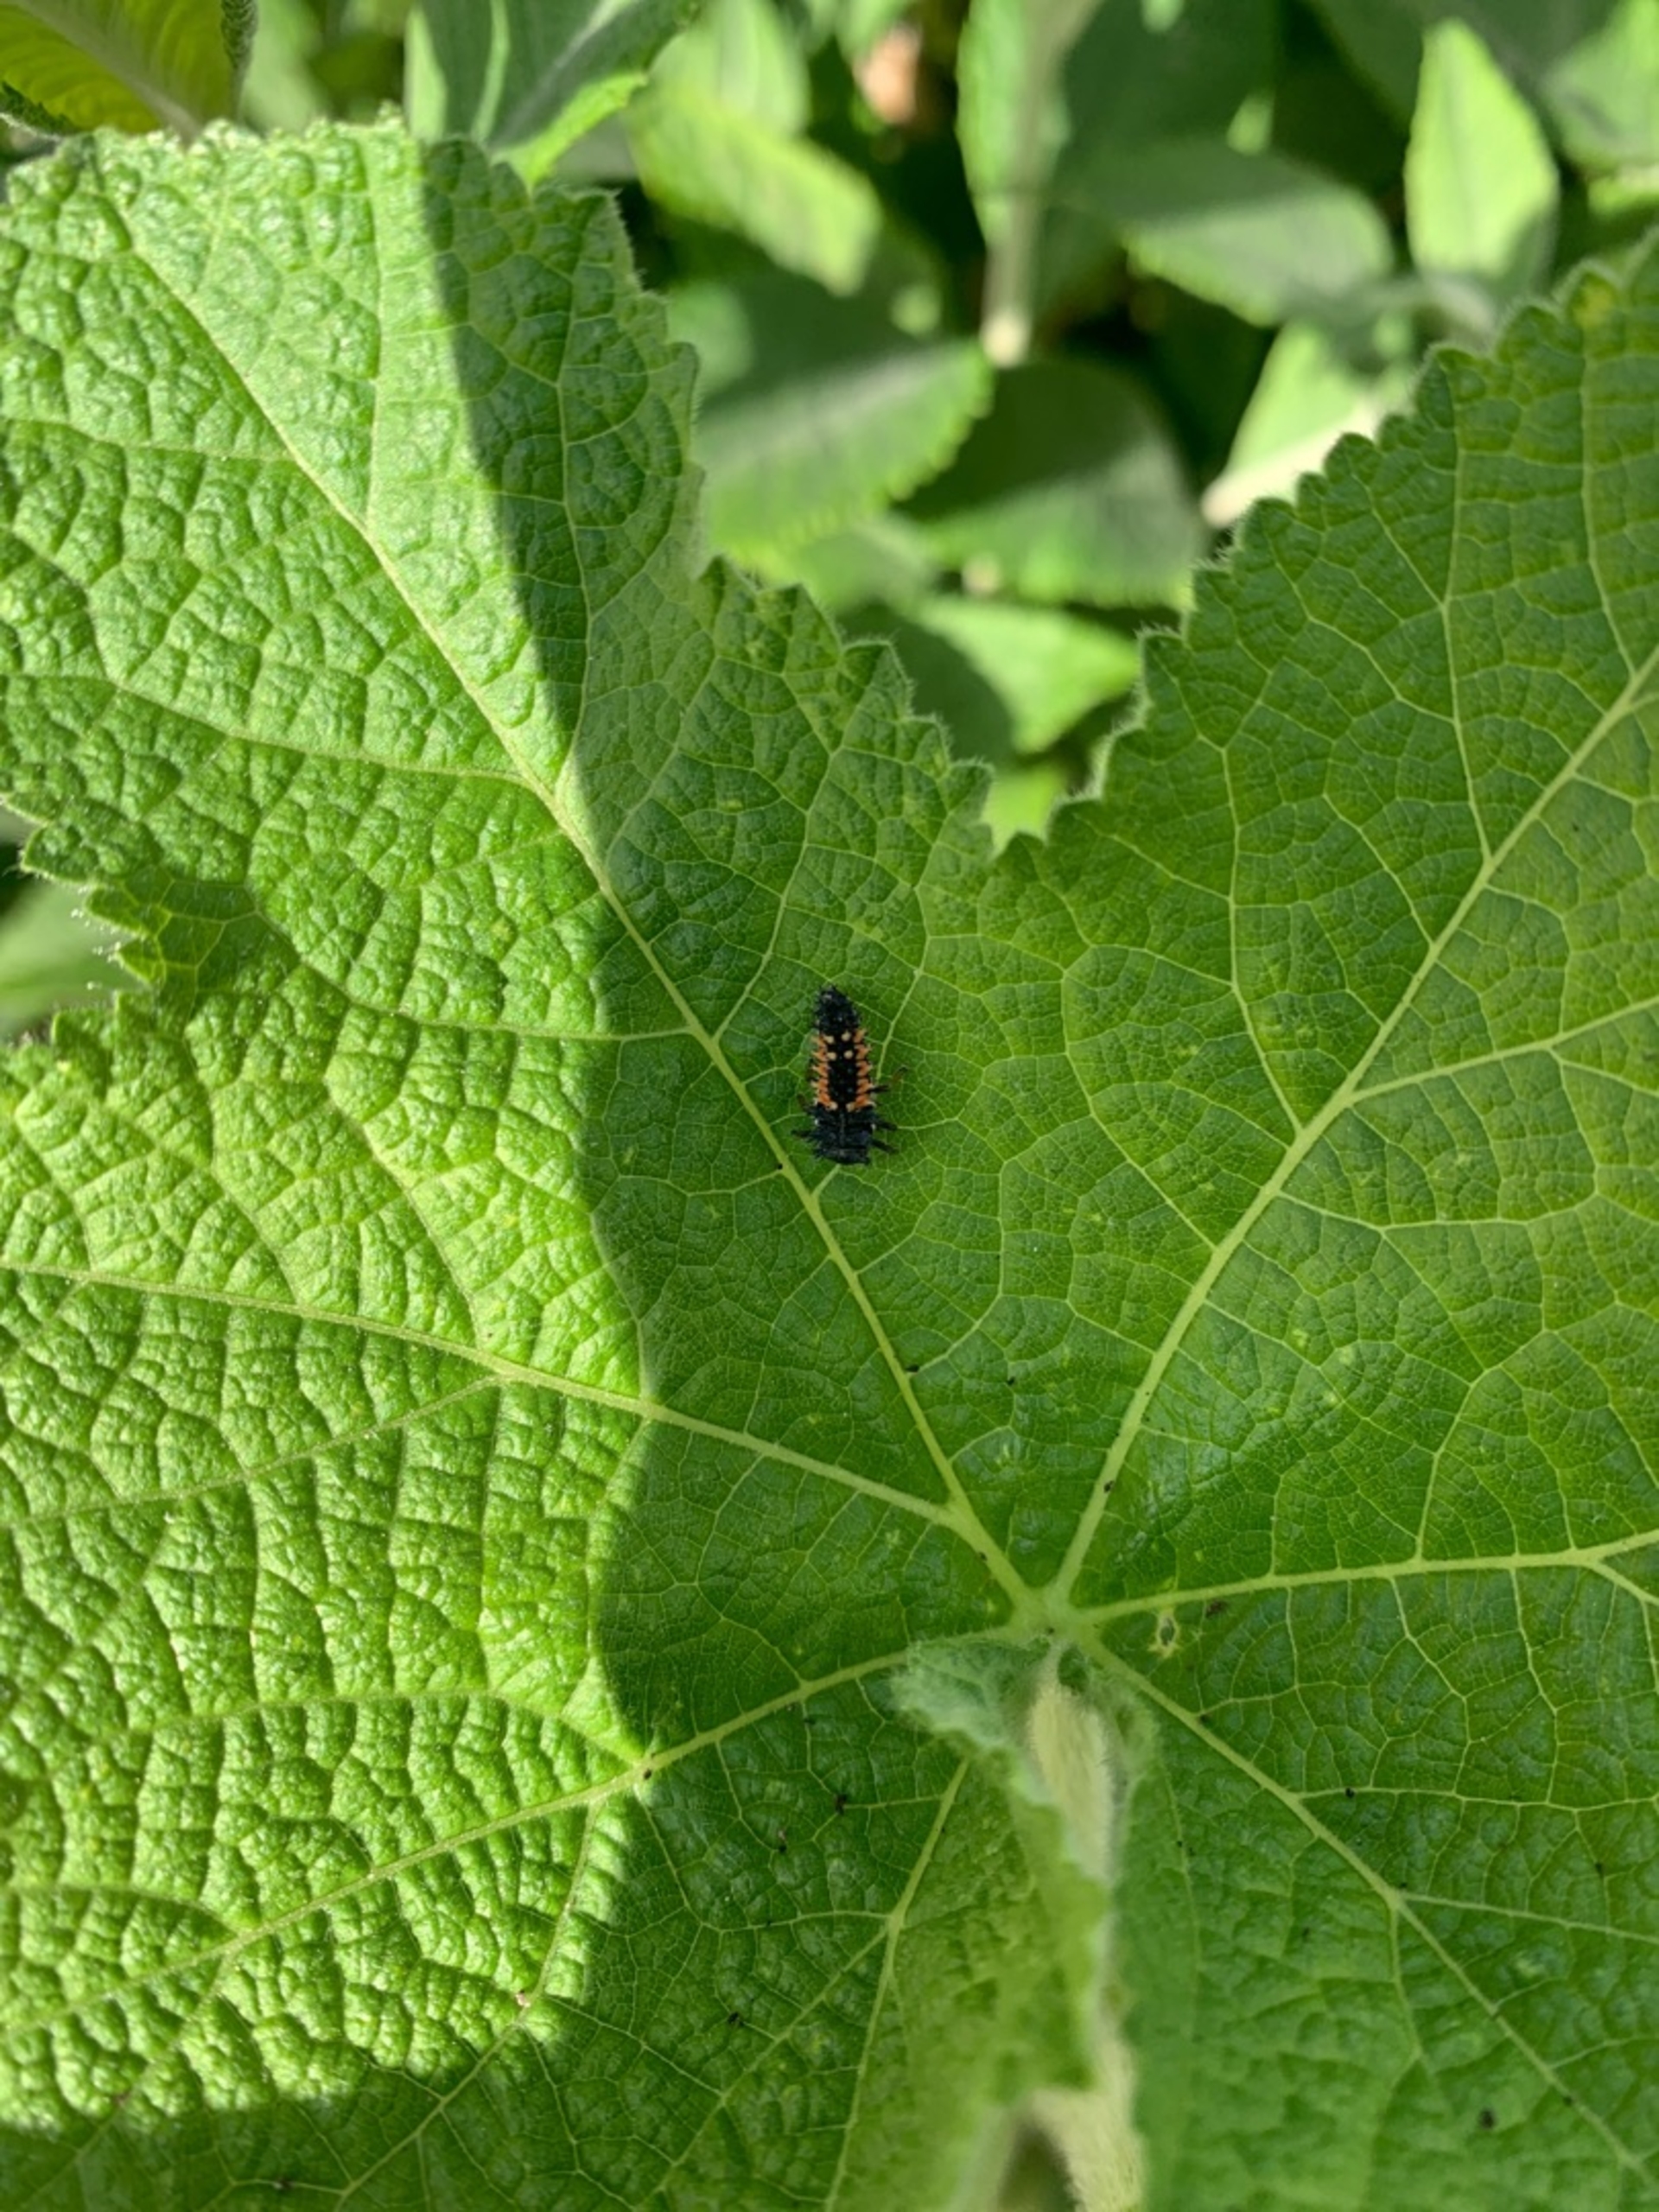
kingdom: Animalia
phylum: Arthropoda
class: Insecta
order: Coleoptera
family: Coccinellidae
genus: Harmonia
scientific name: Harmonia axyridis
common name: Harlekinmariehøne
